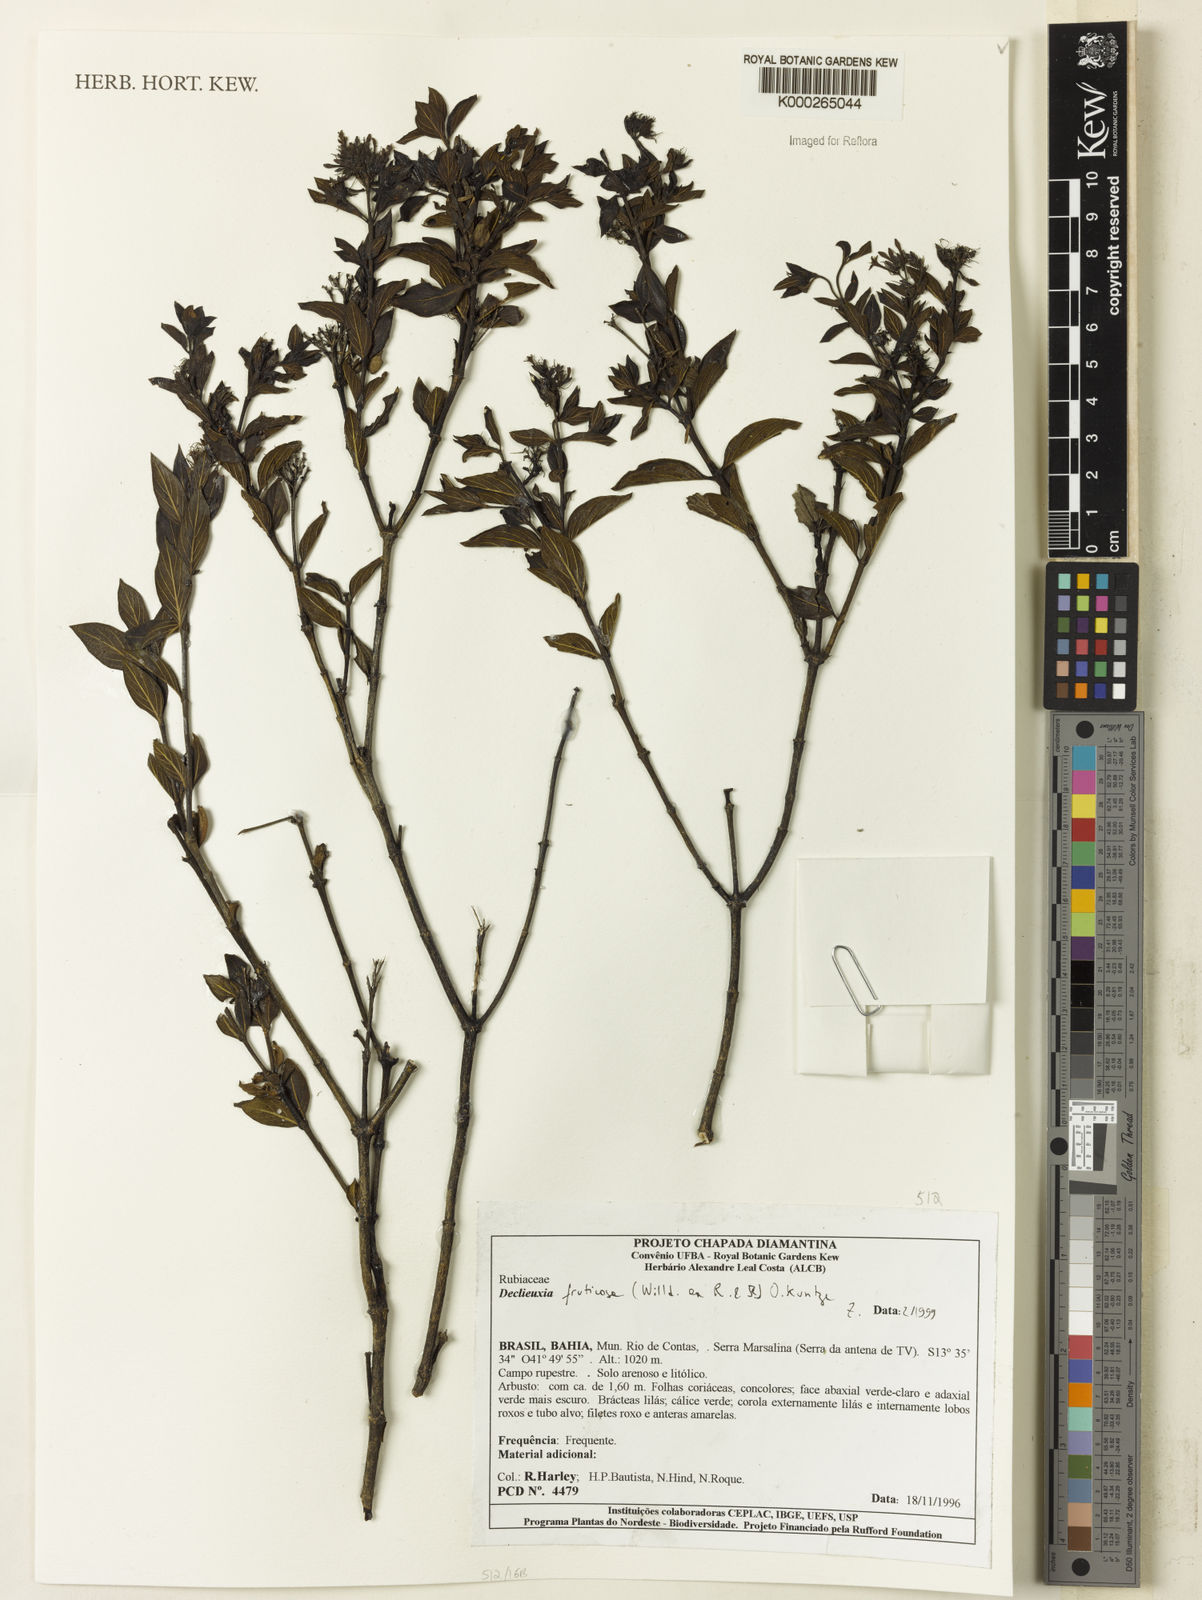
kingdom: Plantae
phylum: Tracheophyta
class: Magnoliopsida
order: Gentianales
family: Rubiaceae
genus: Declieuxia
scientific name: Declieuxia fruticosa
